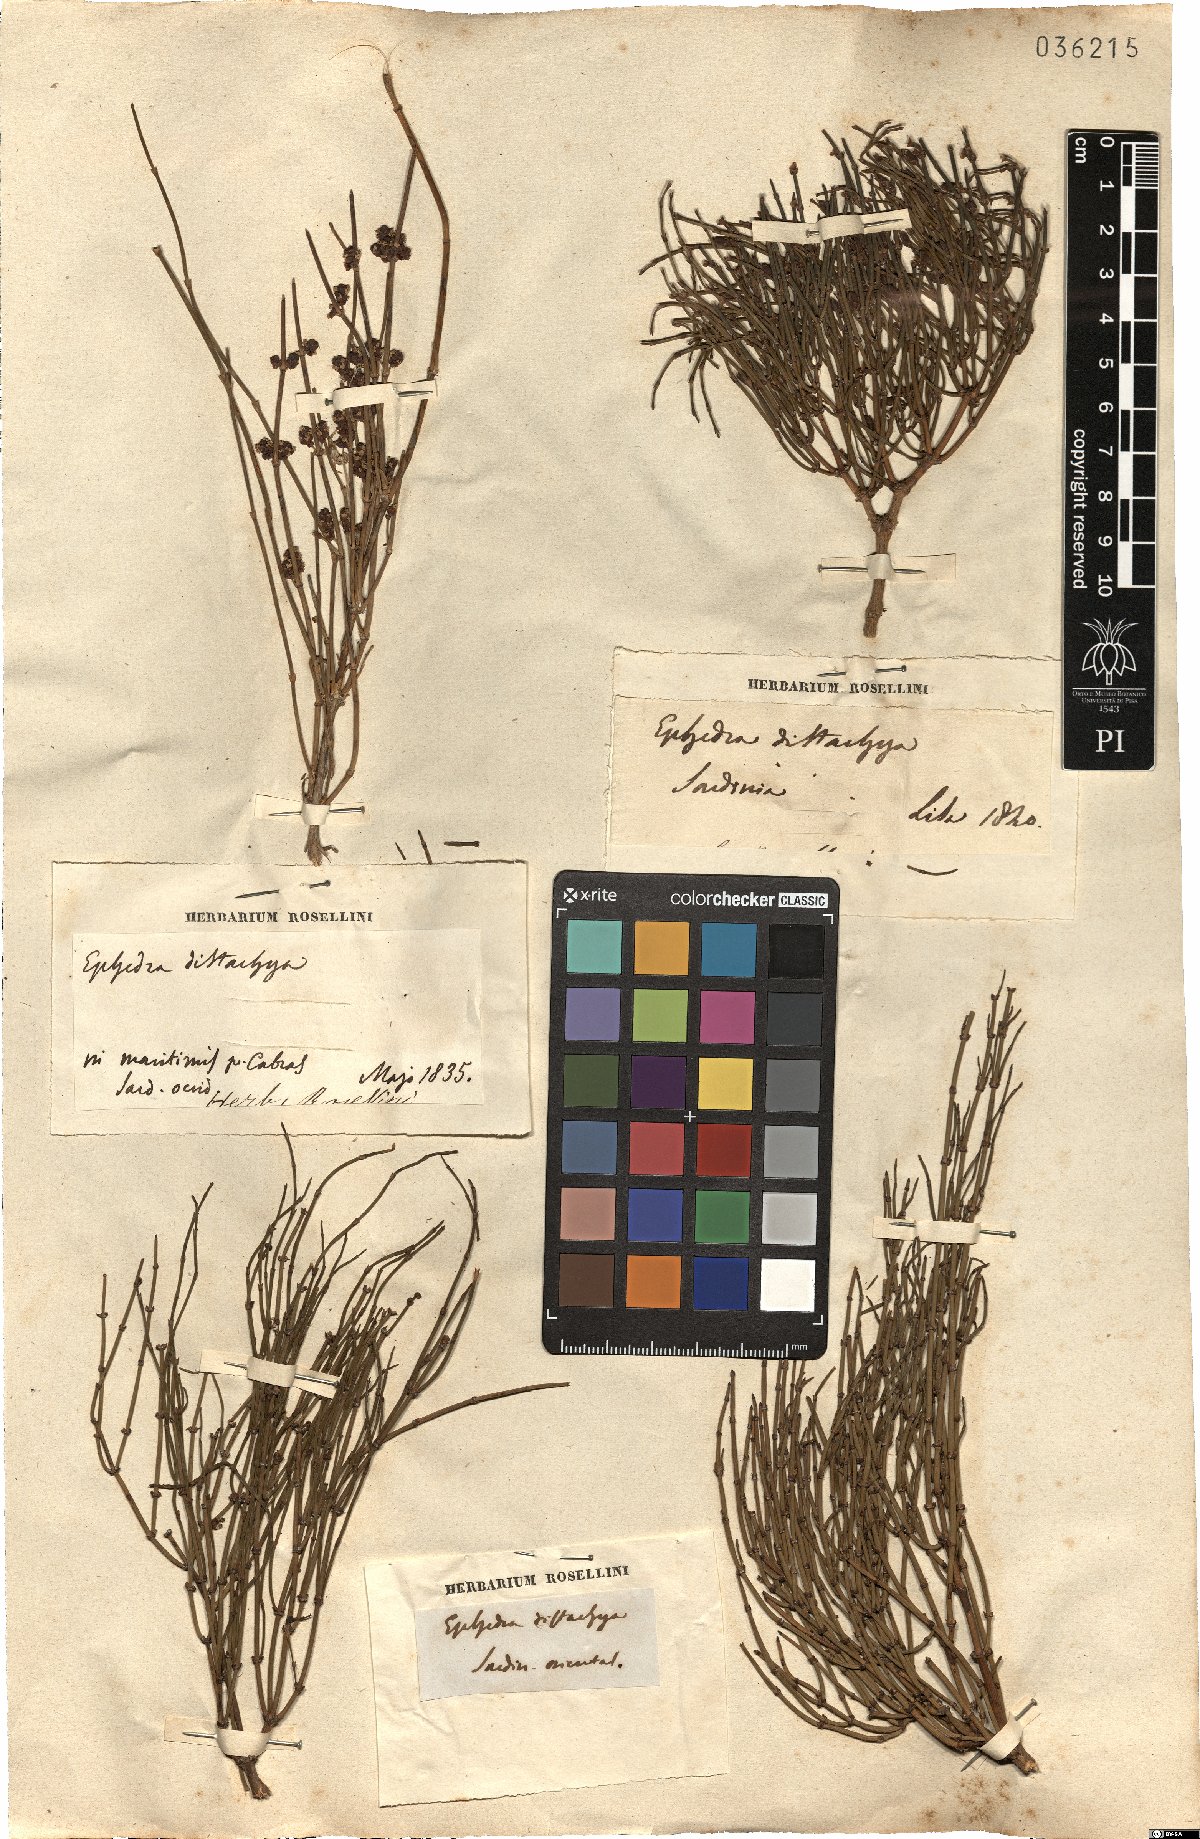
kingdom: Plantae
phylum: Tracheophyta
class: Gnetopsida
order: Ephedrales
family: Ephedraceae
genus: Ephedra
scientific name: Ephedra distachya
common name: Sea grape
